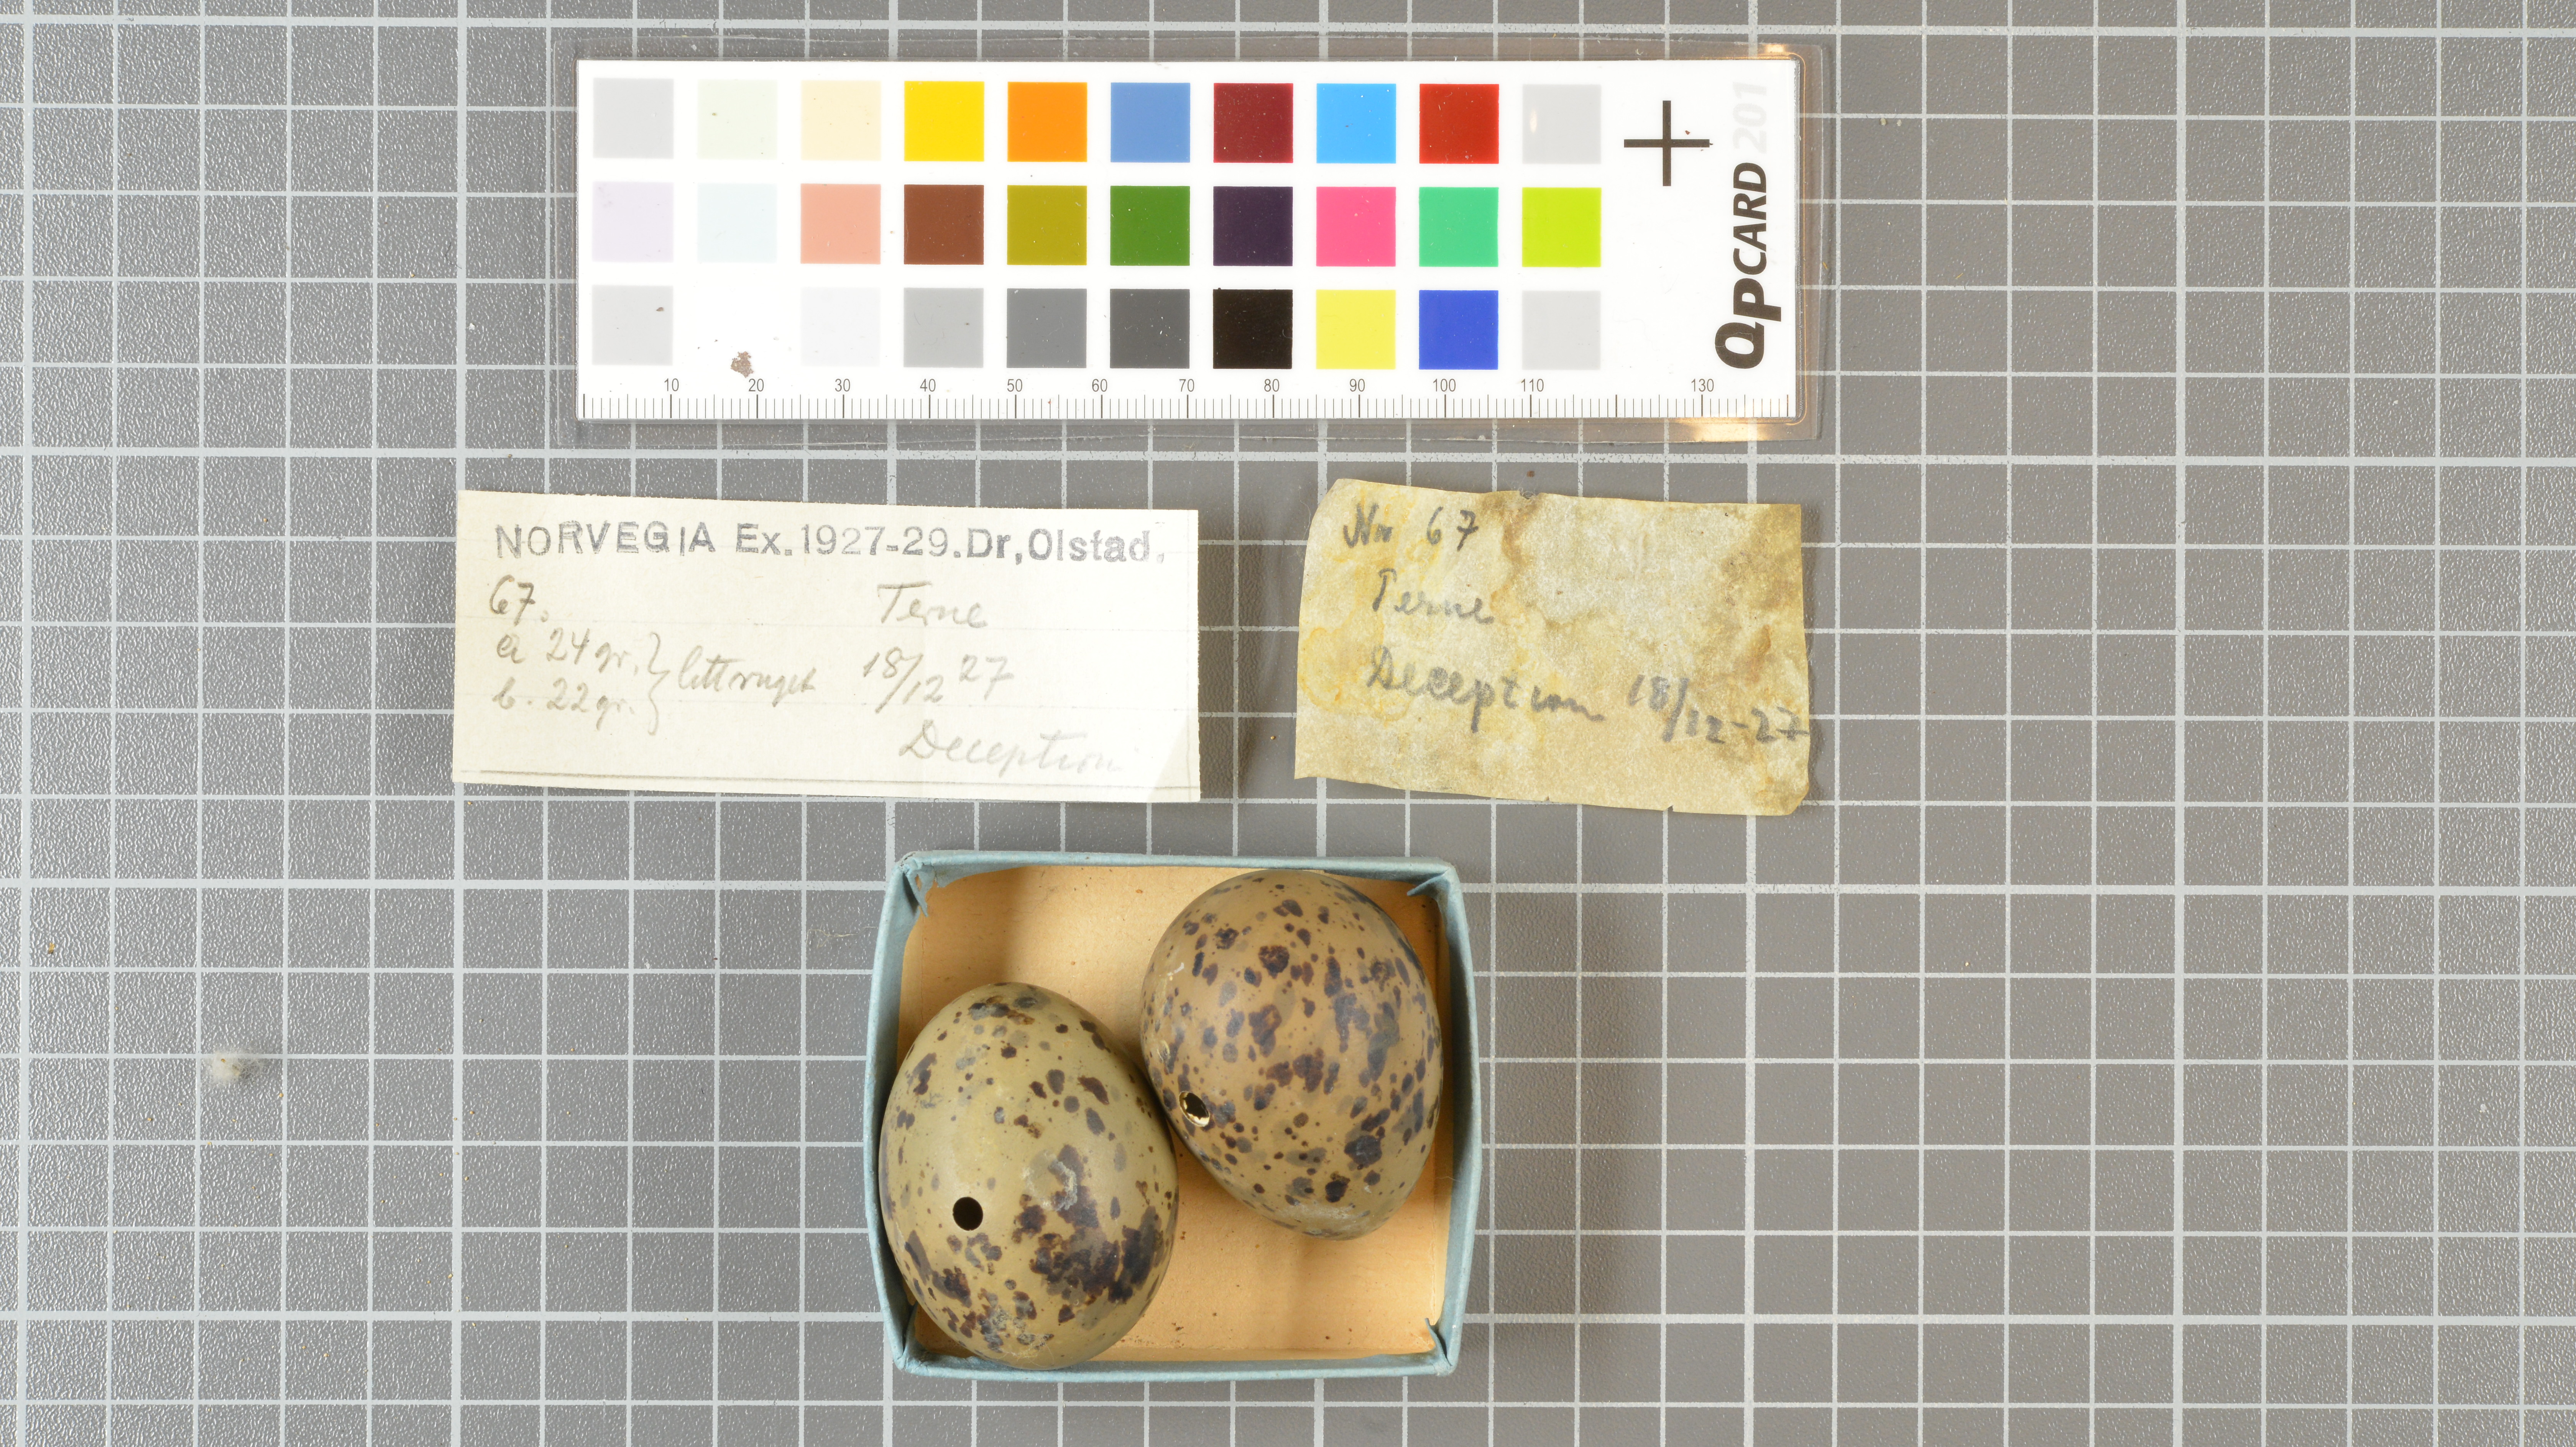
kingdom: Animalia
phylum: Chordata
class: Aves
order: Charadriiformes
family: Laridae
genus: Sterna
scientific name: Sterna vittata
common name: Antarctic tern
